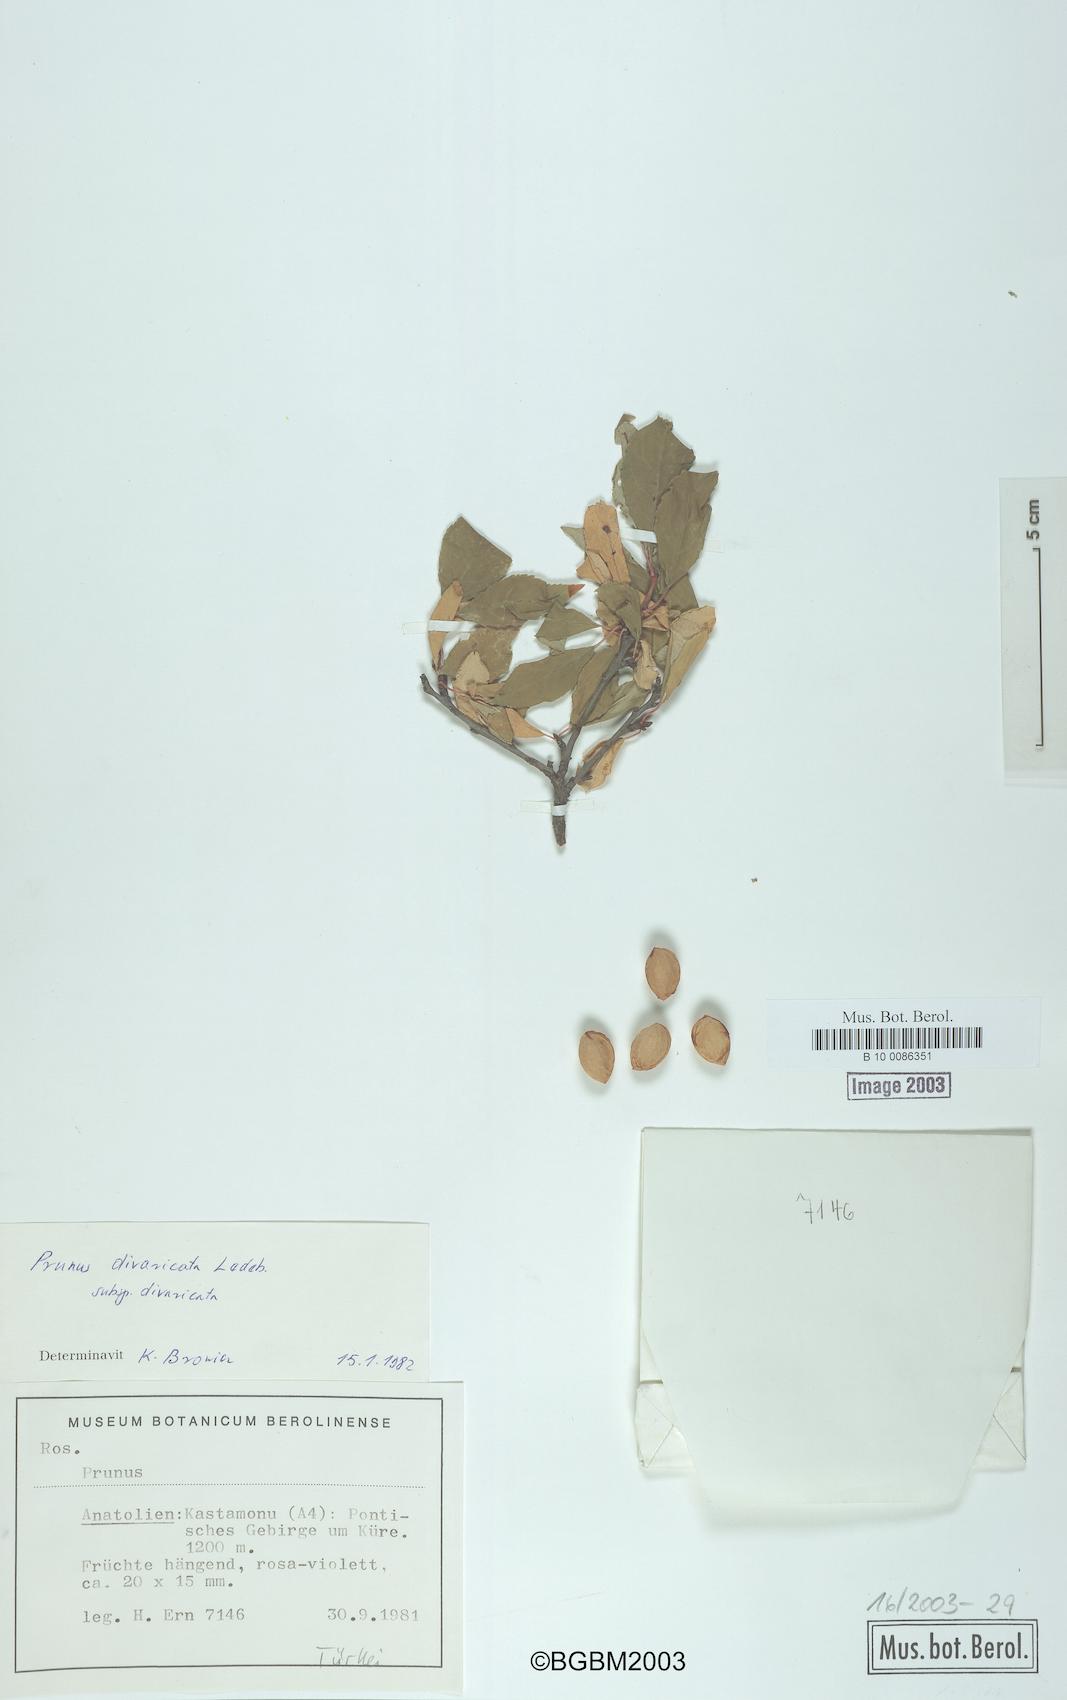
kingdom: Plantae
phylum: Tracheophyta
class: Magnoliopsida
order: Rosales
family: Rosaceae
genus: Prunus
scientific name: Prunus cerasifera
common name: Cherry plum
